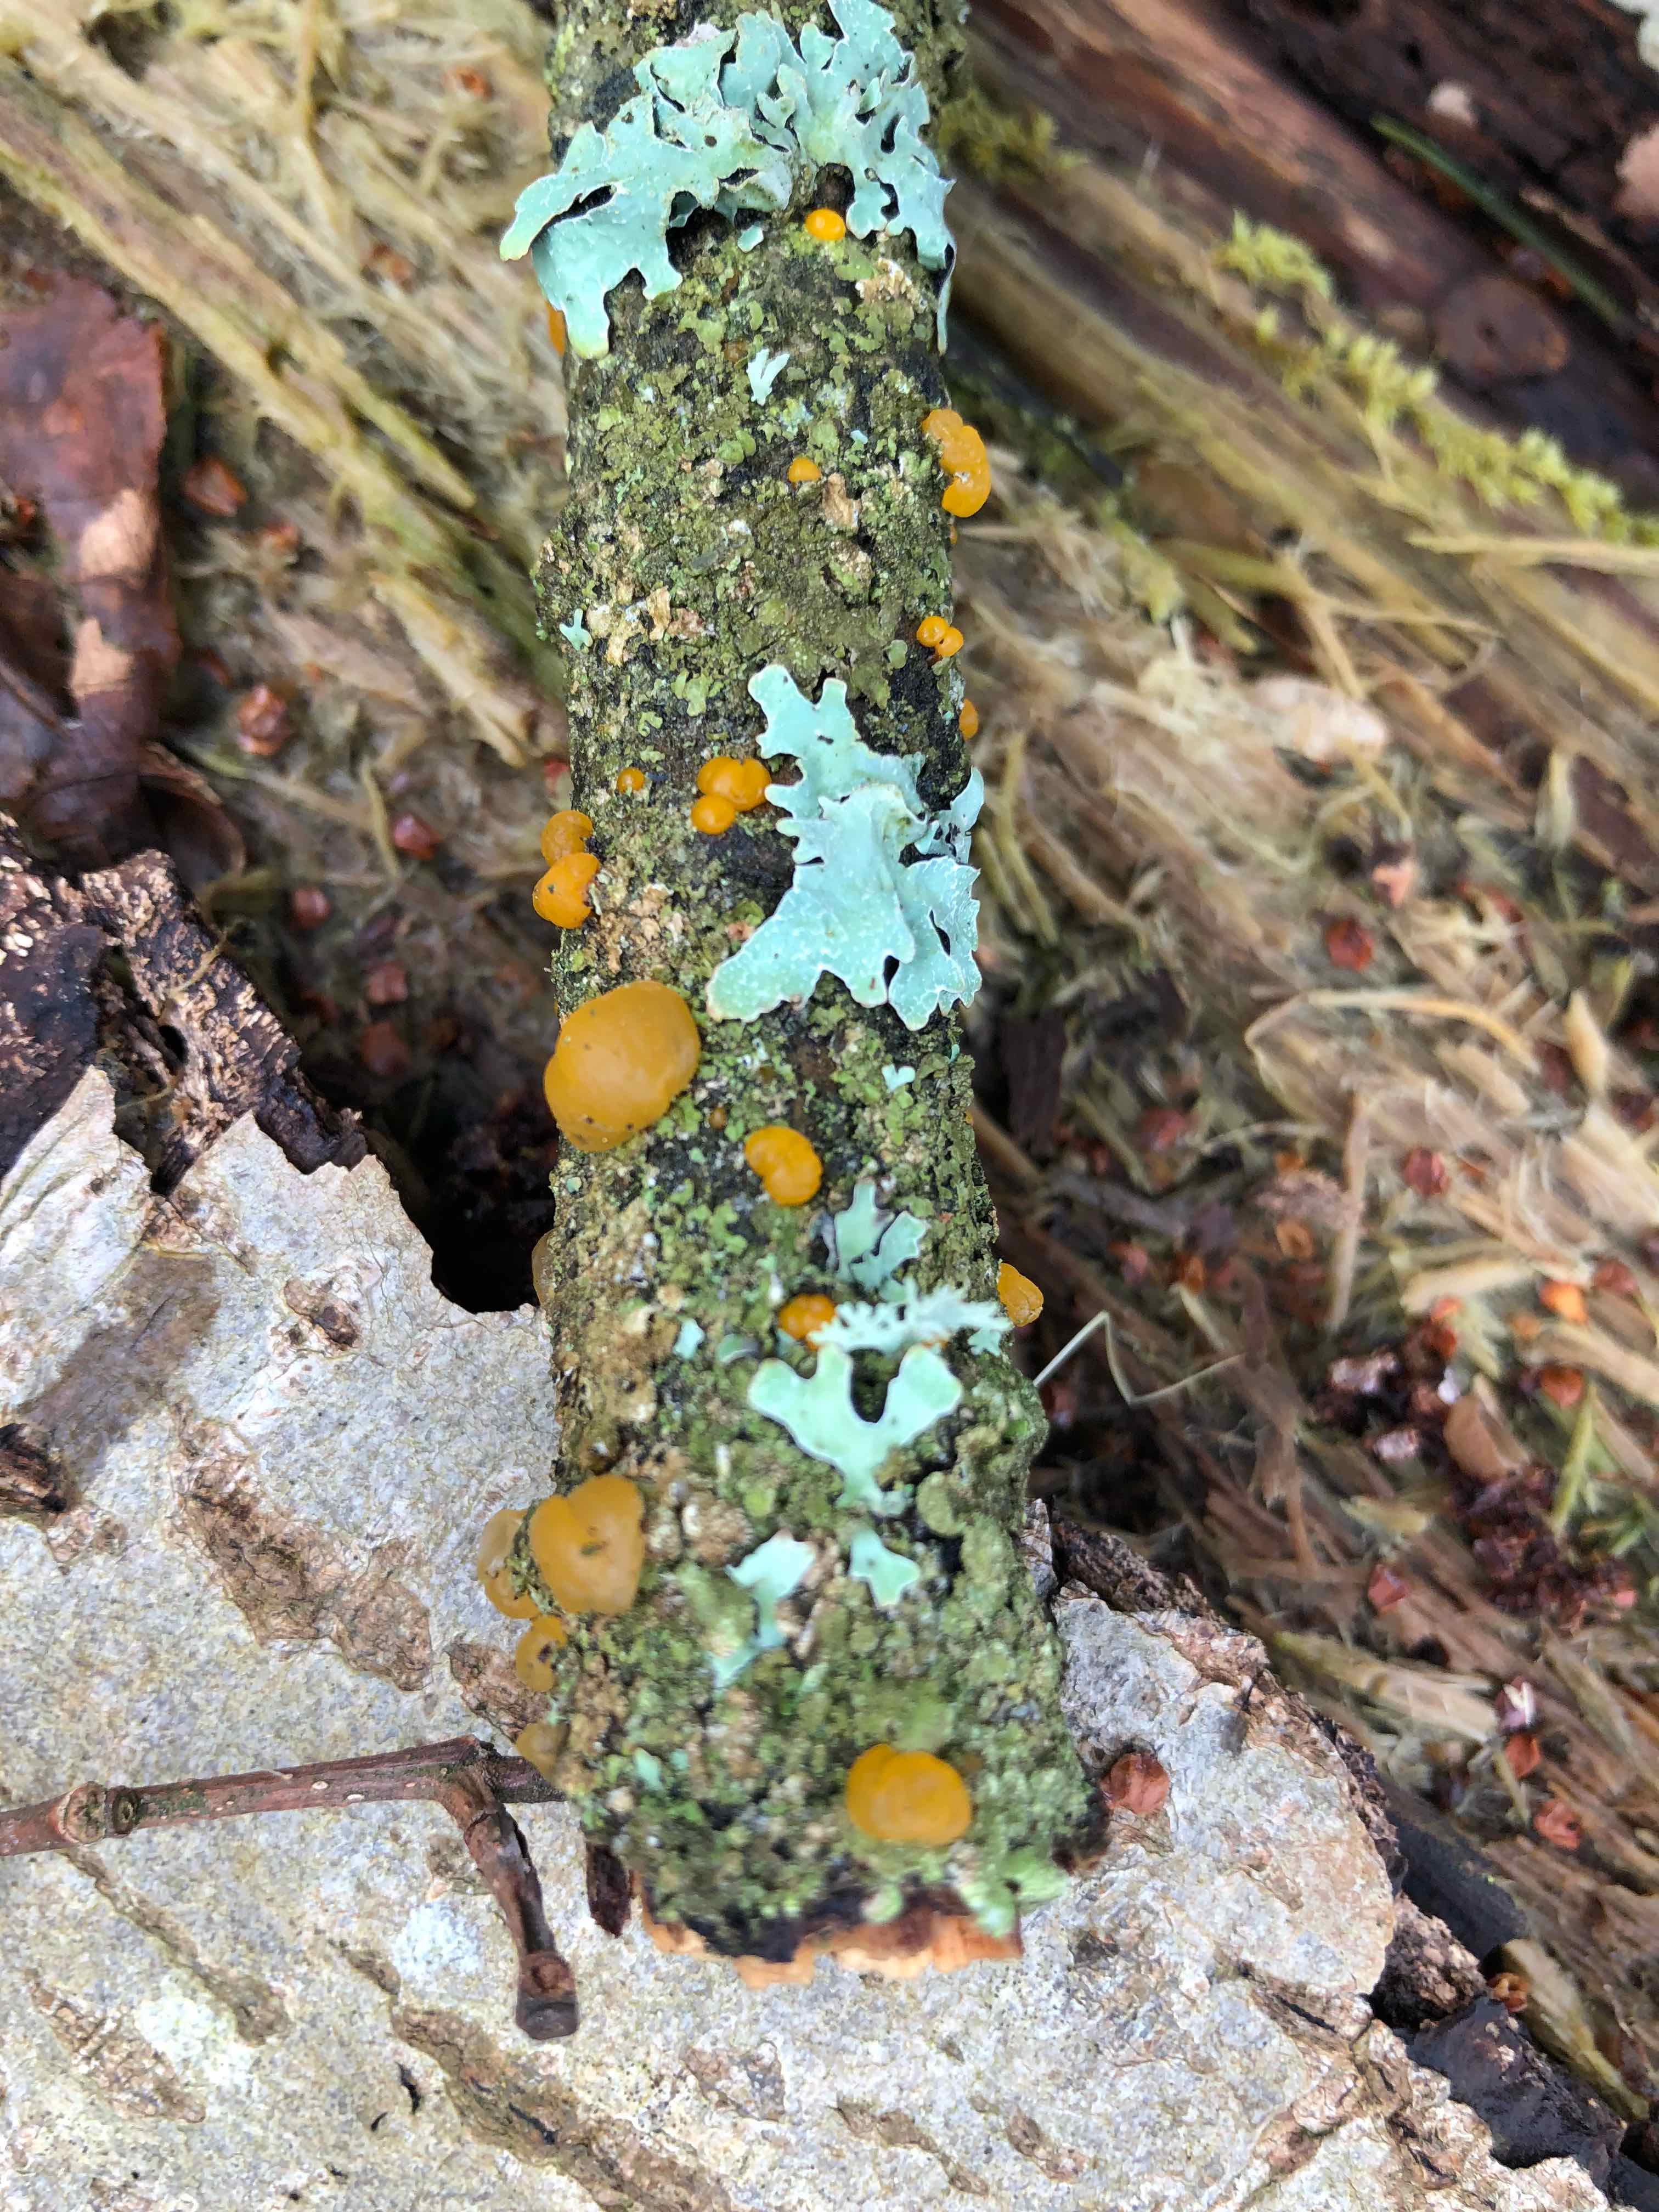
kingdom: Fungi
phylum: Basidiomycota
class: Dacrymycetes
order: Dacrymycetales
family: Dacrymycetaceae
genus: Dacrymyces
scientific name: Dacrymyces lacrymalis
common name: rynket tåresvamp
